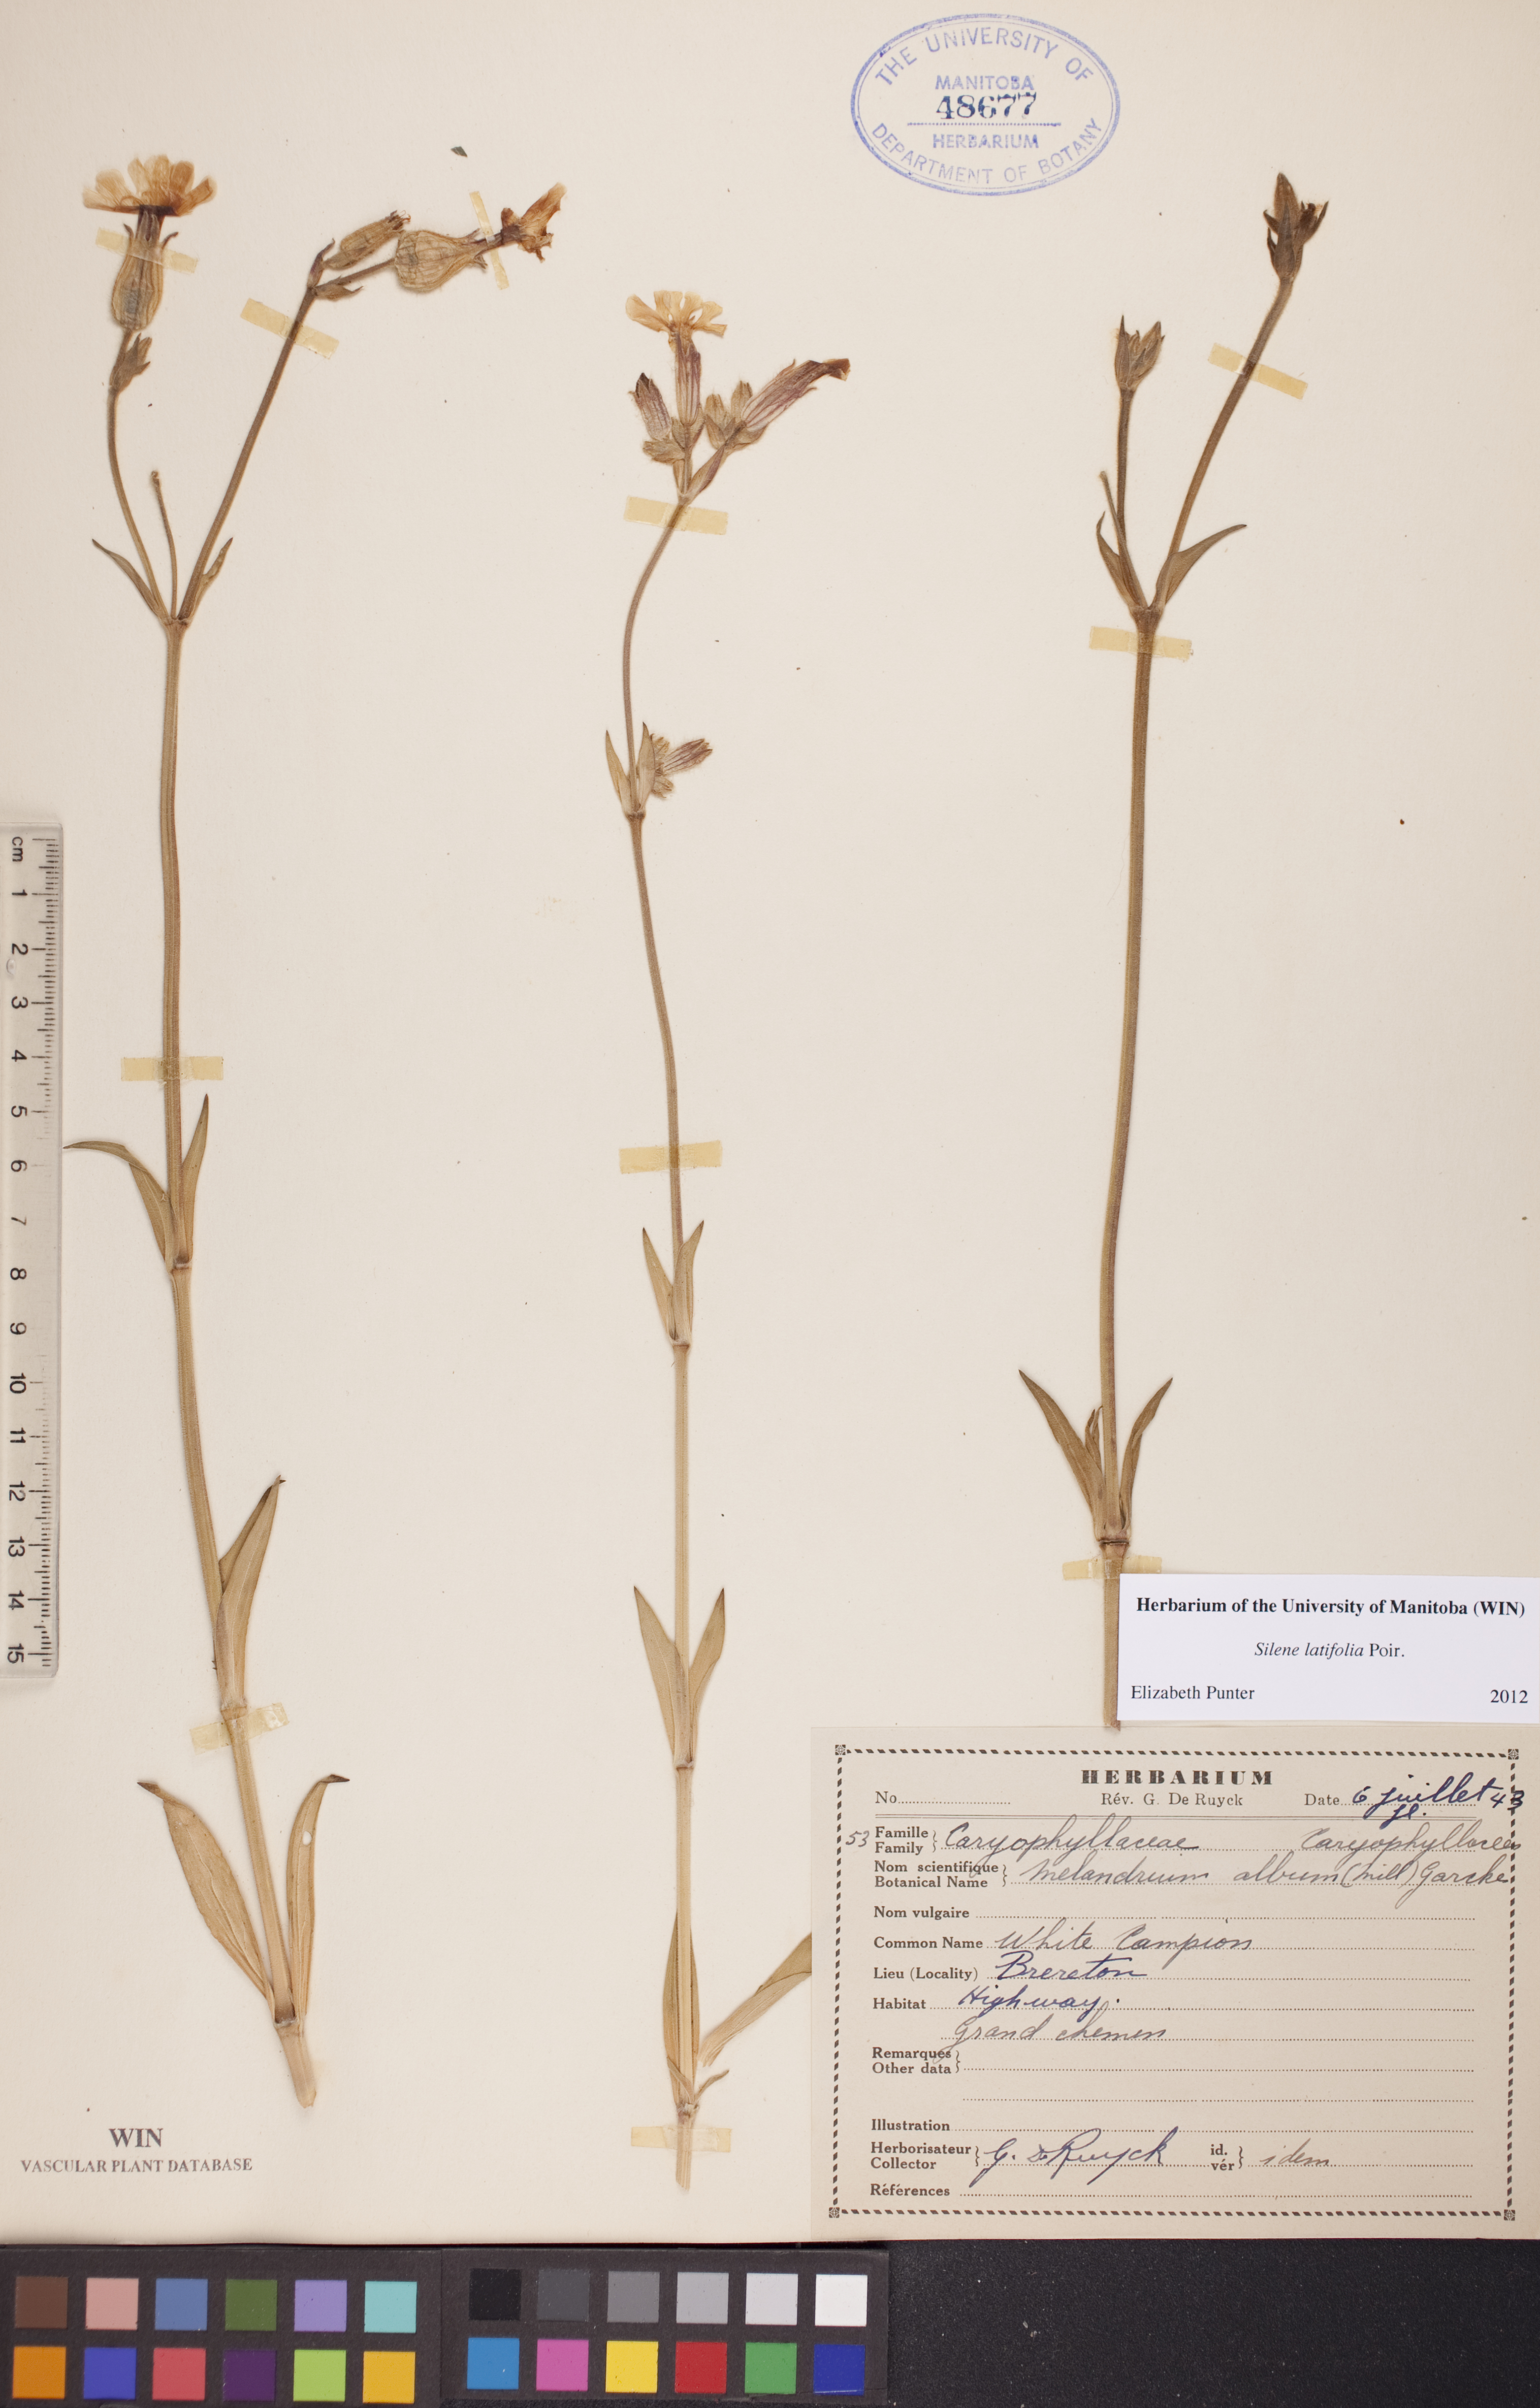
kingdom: Plantae
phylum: Tracheophyta
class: Magnoliopsida
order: Caryophyllales
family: Caryophyllaceae
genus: Silene
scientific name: Silene latifolia
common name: White campion
